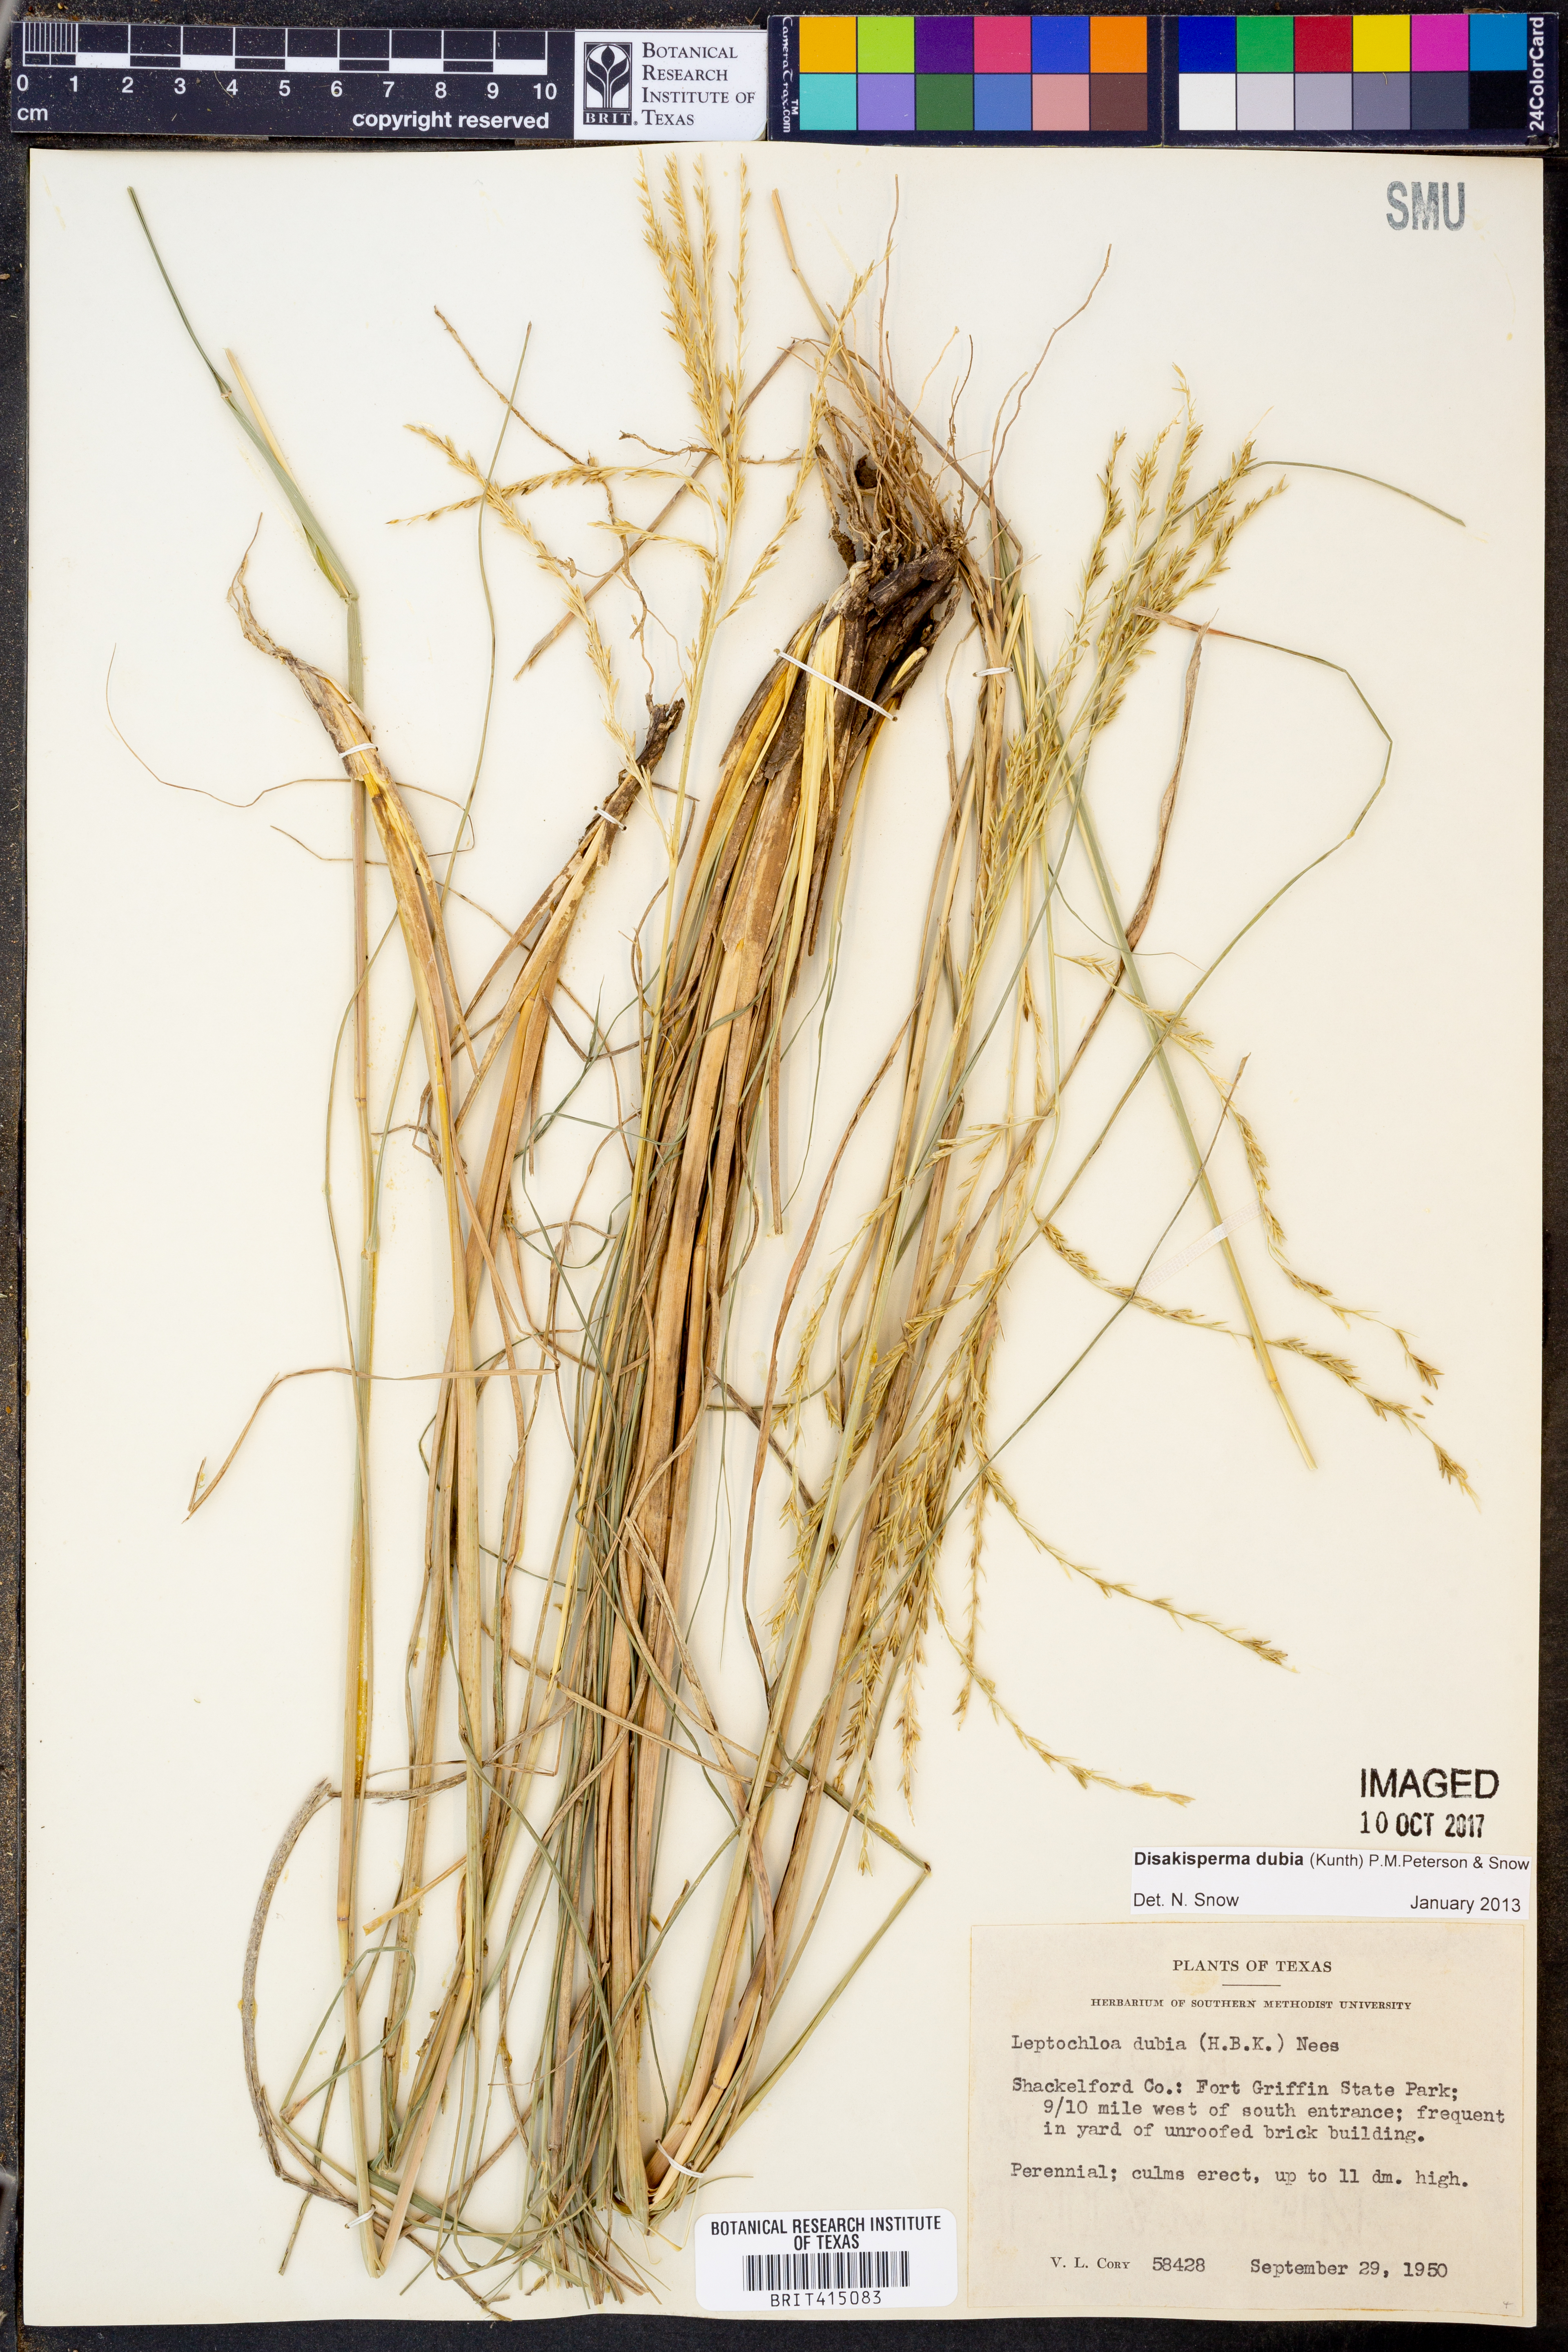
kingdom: Plantae
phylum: Tracheophyta
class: Liliopsida
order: Poales
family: Poaceae
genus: Disakisperma
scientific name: Disakisperma dubium
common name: Green sprangletop
